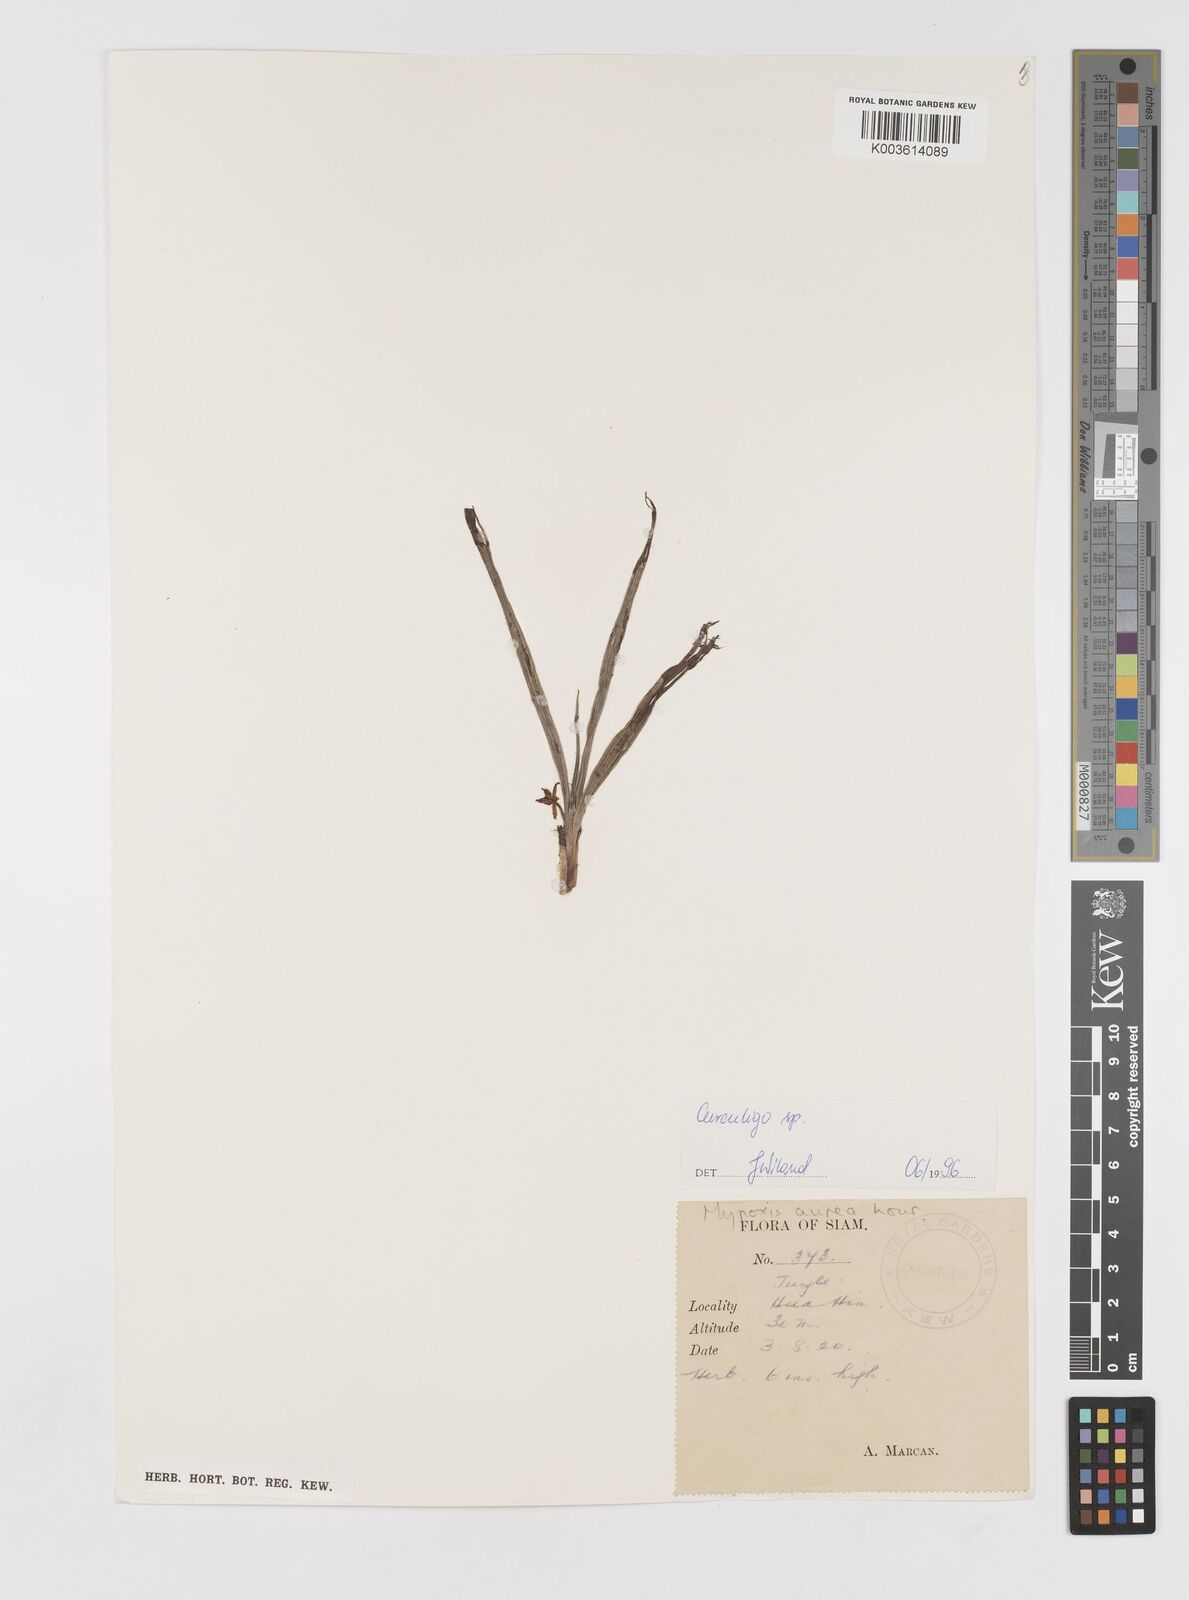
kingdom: Plantae
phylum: Tracheophyta
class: Liliopsida
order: Asparagales
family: Hypoxidaceae
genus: Curculigo
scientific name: Curculigo
